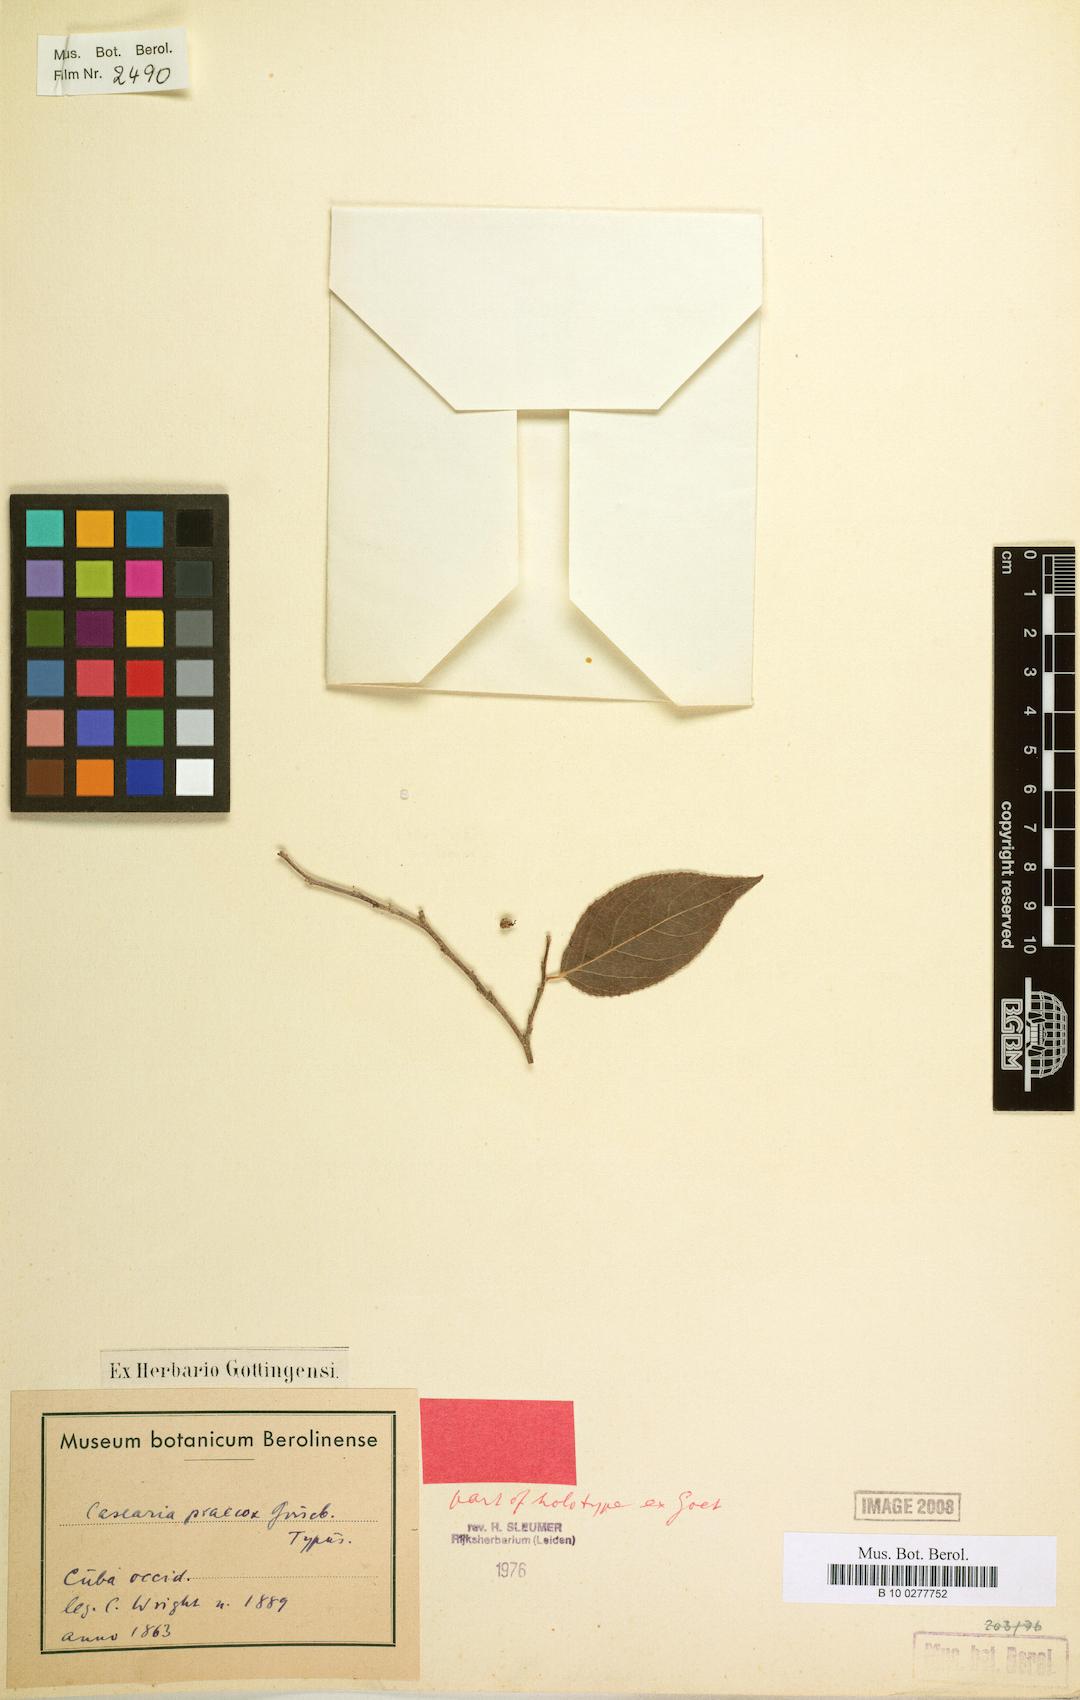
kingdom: Plantae
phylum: Tracheophyta
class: Magnoliopsida
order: Malpighiales
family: Salicaceae
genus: Casearia
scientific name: Casearia praecox
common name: Maracaibo-boxwood
